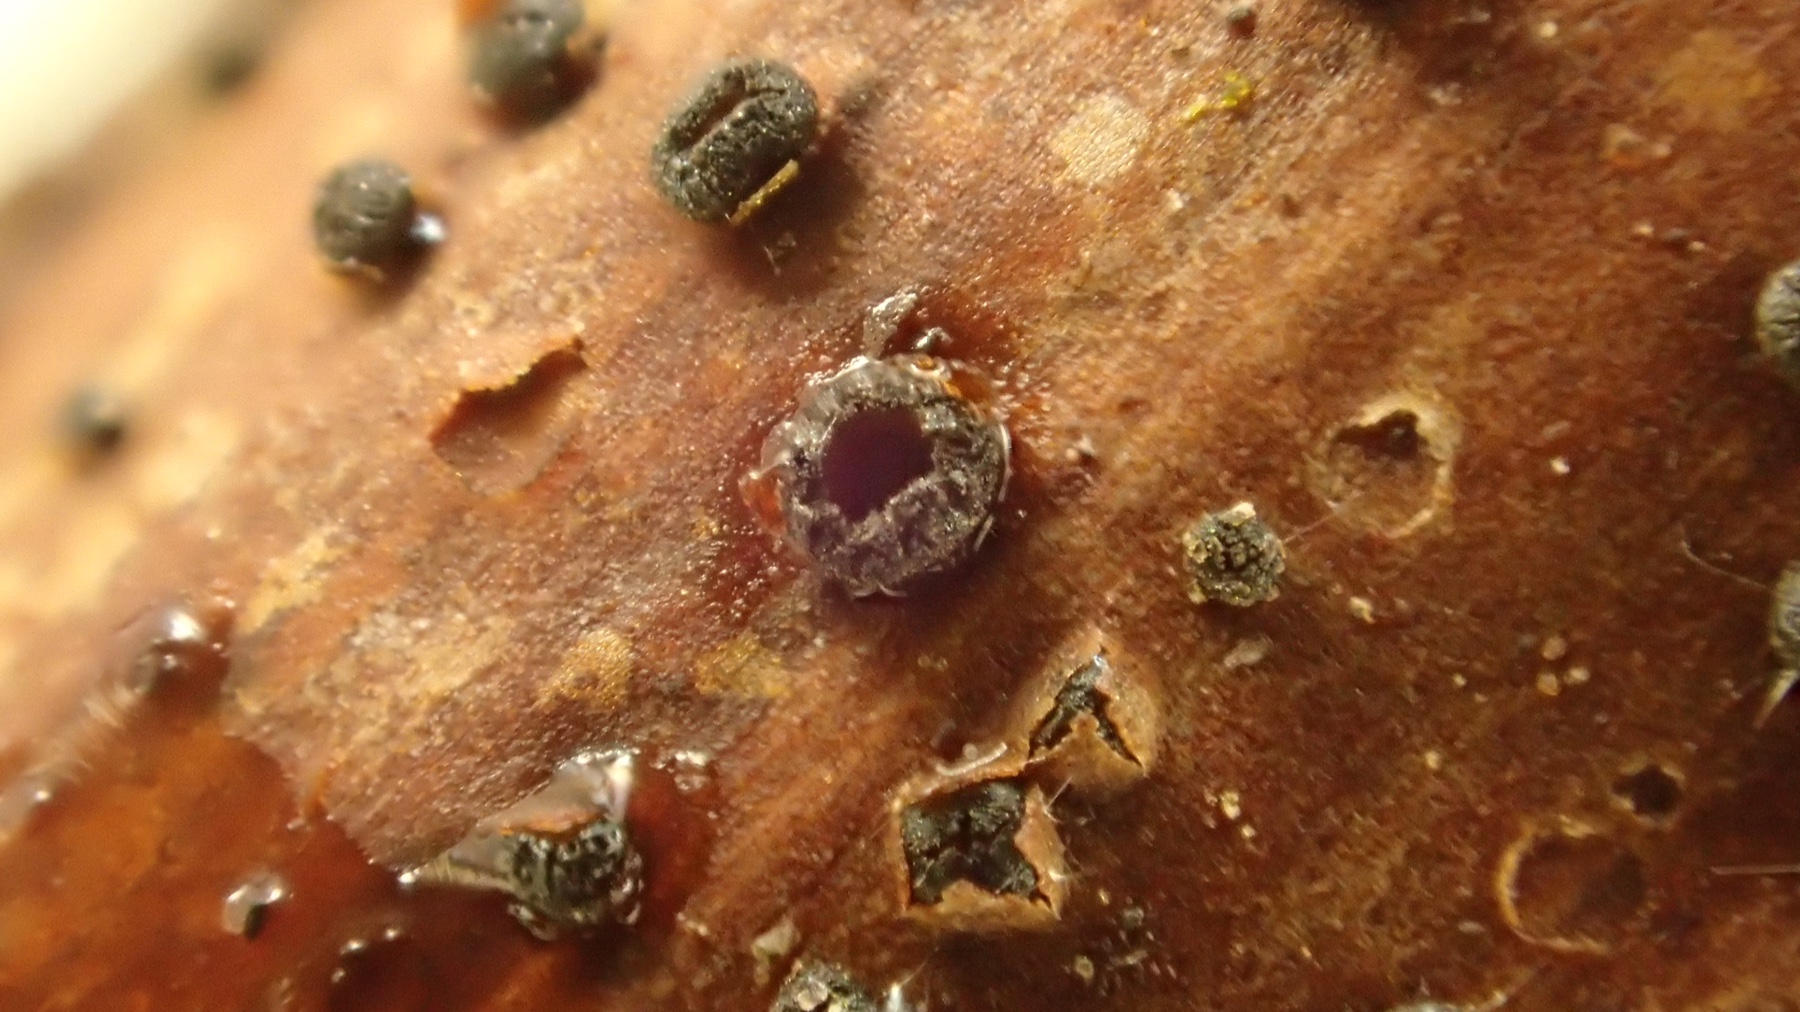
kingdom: Fungi
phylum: Ascomycota
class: Leotiomycetes
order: Helotiales
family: Ploettnerulaceae
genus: Pyrenopeziza
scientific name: Pyrenopeziza rubi
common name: hindbær-kerneskive
